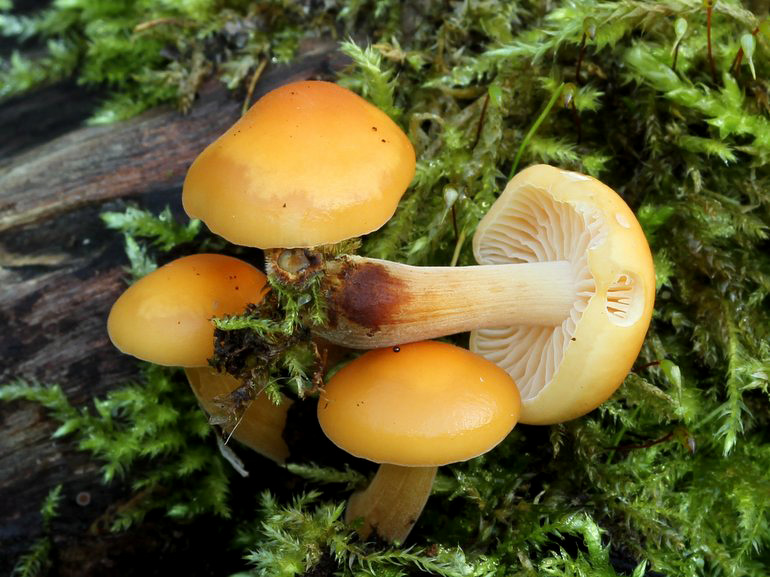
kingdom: Fungi
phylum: Basidiomycota
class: Agaricomycetes
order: Agaricales
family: Physalacriaceae
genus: Flammulina
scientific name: Flammulina elastica
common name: pile-fløjlsfod
